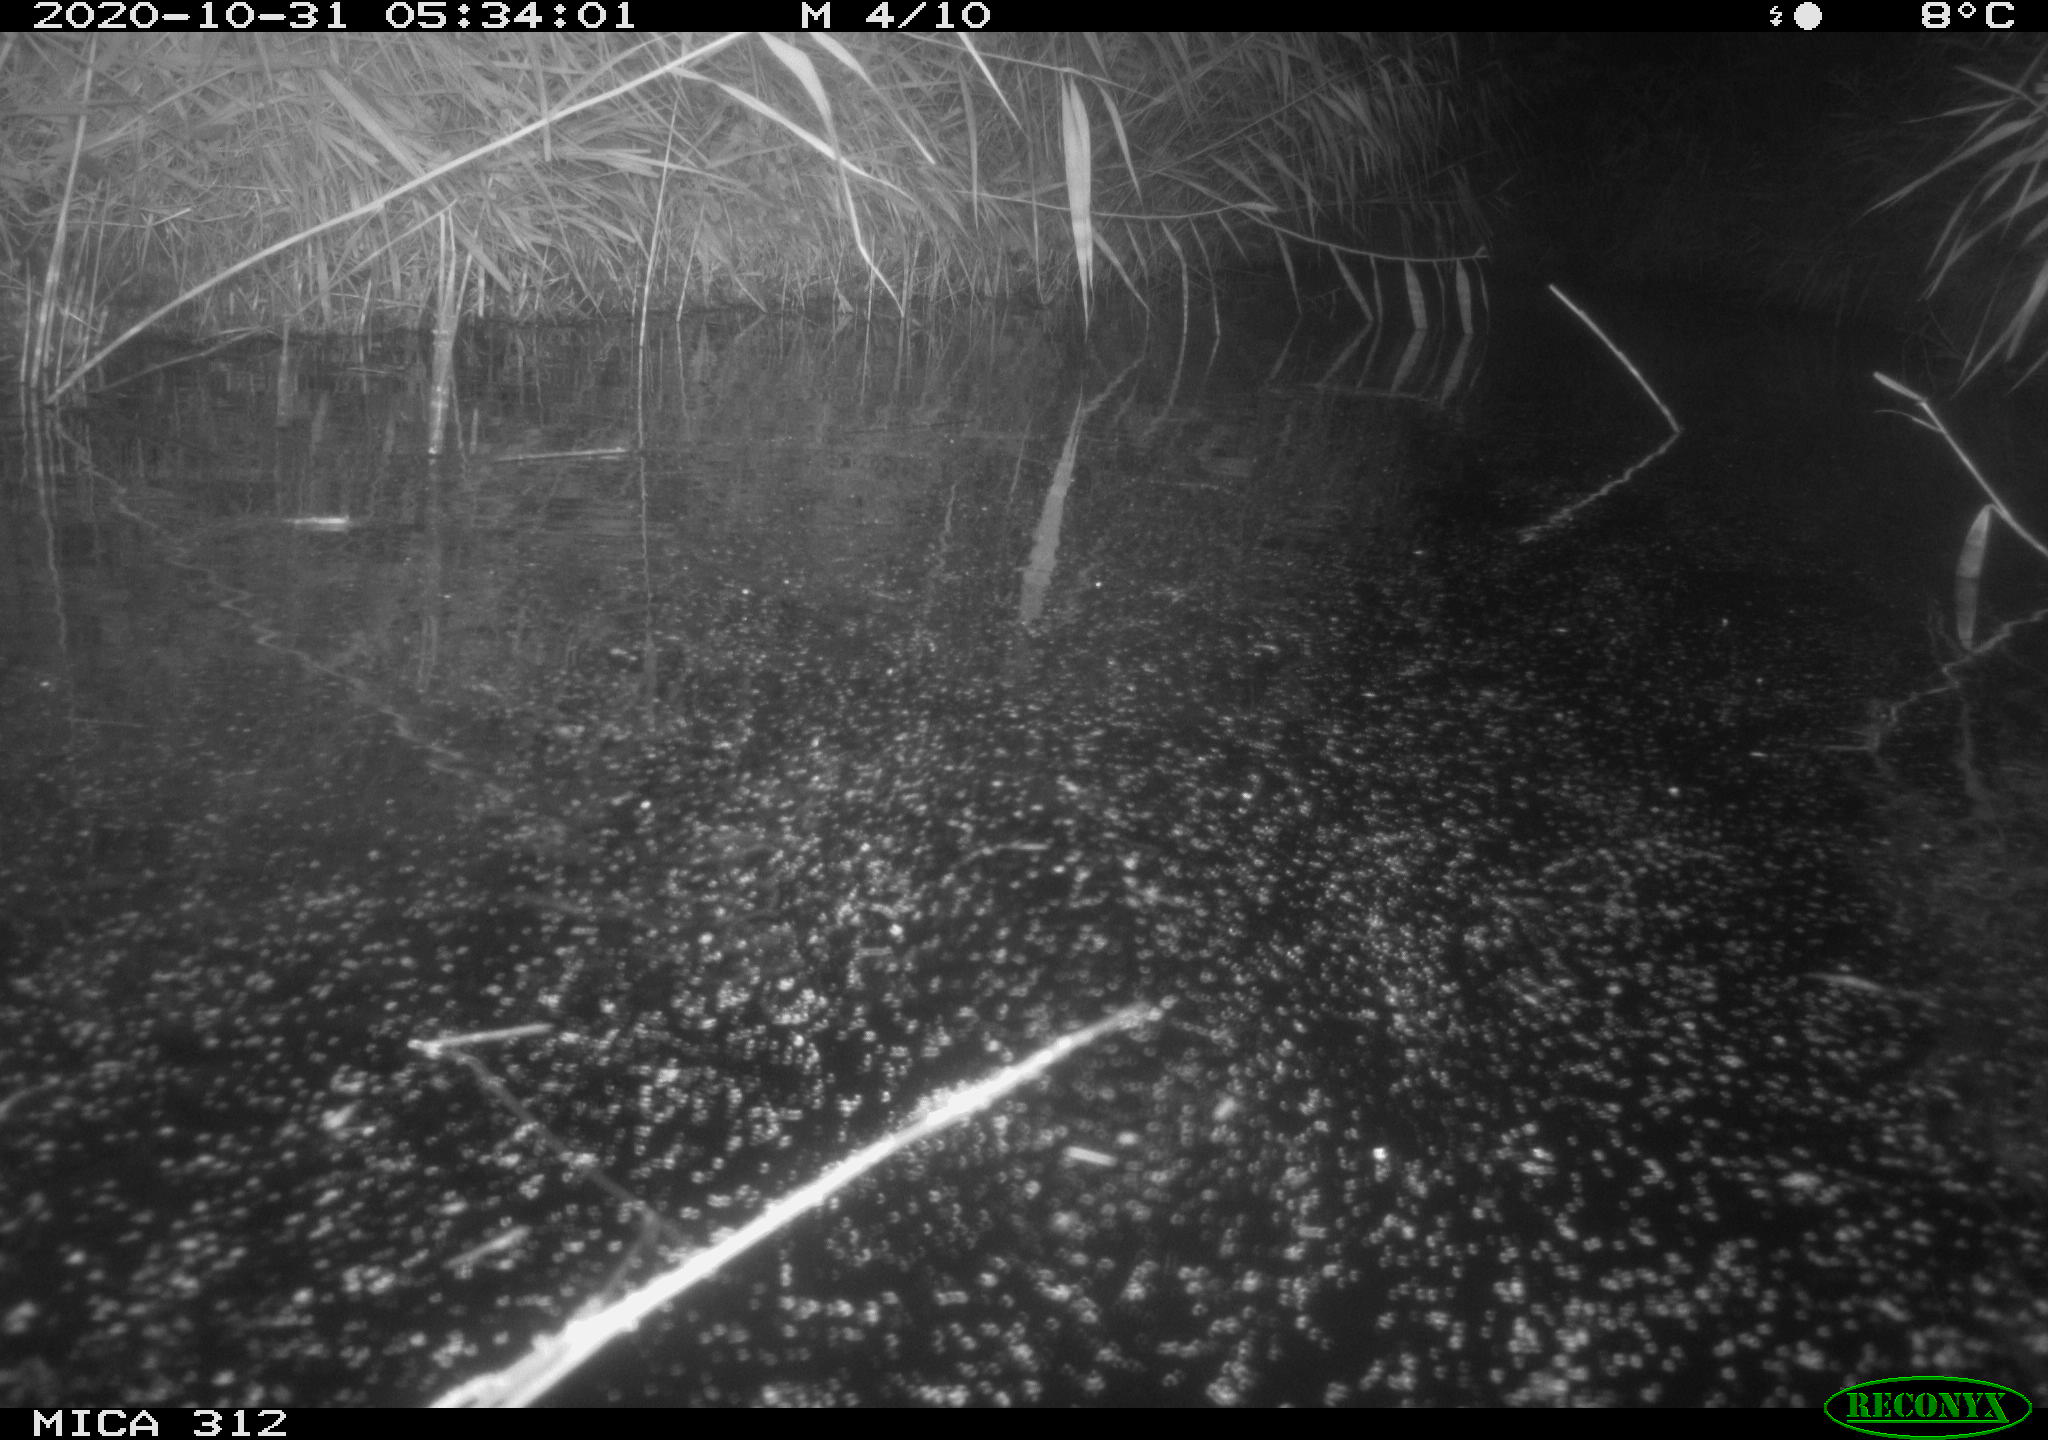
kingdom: Animalia
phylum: Chordata
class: Mammalia
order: Rodentia
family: Muridae
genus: Rattus
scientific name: Rattus norvegicus
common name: Brown rat
